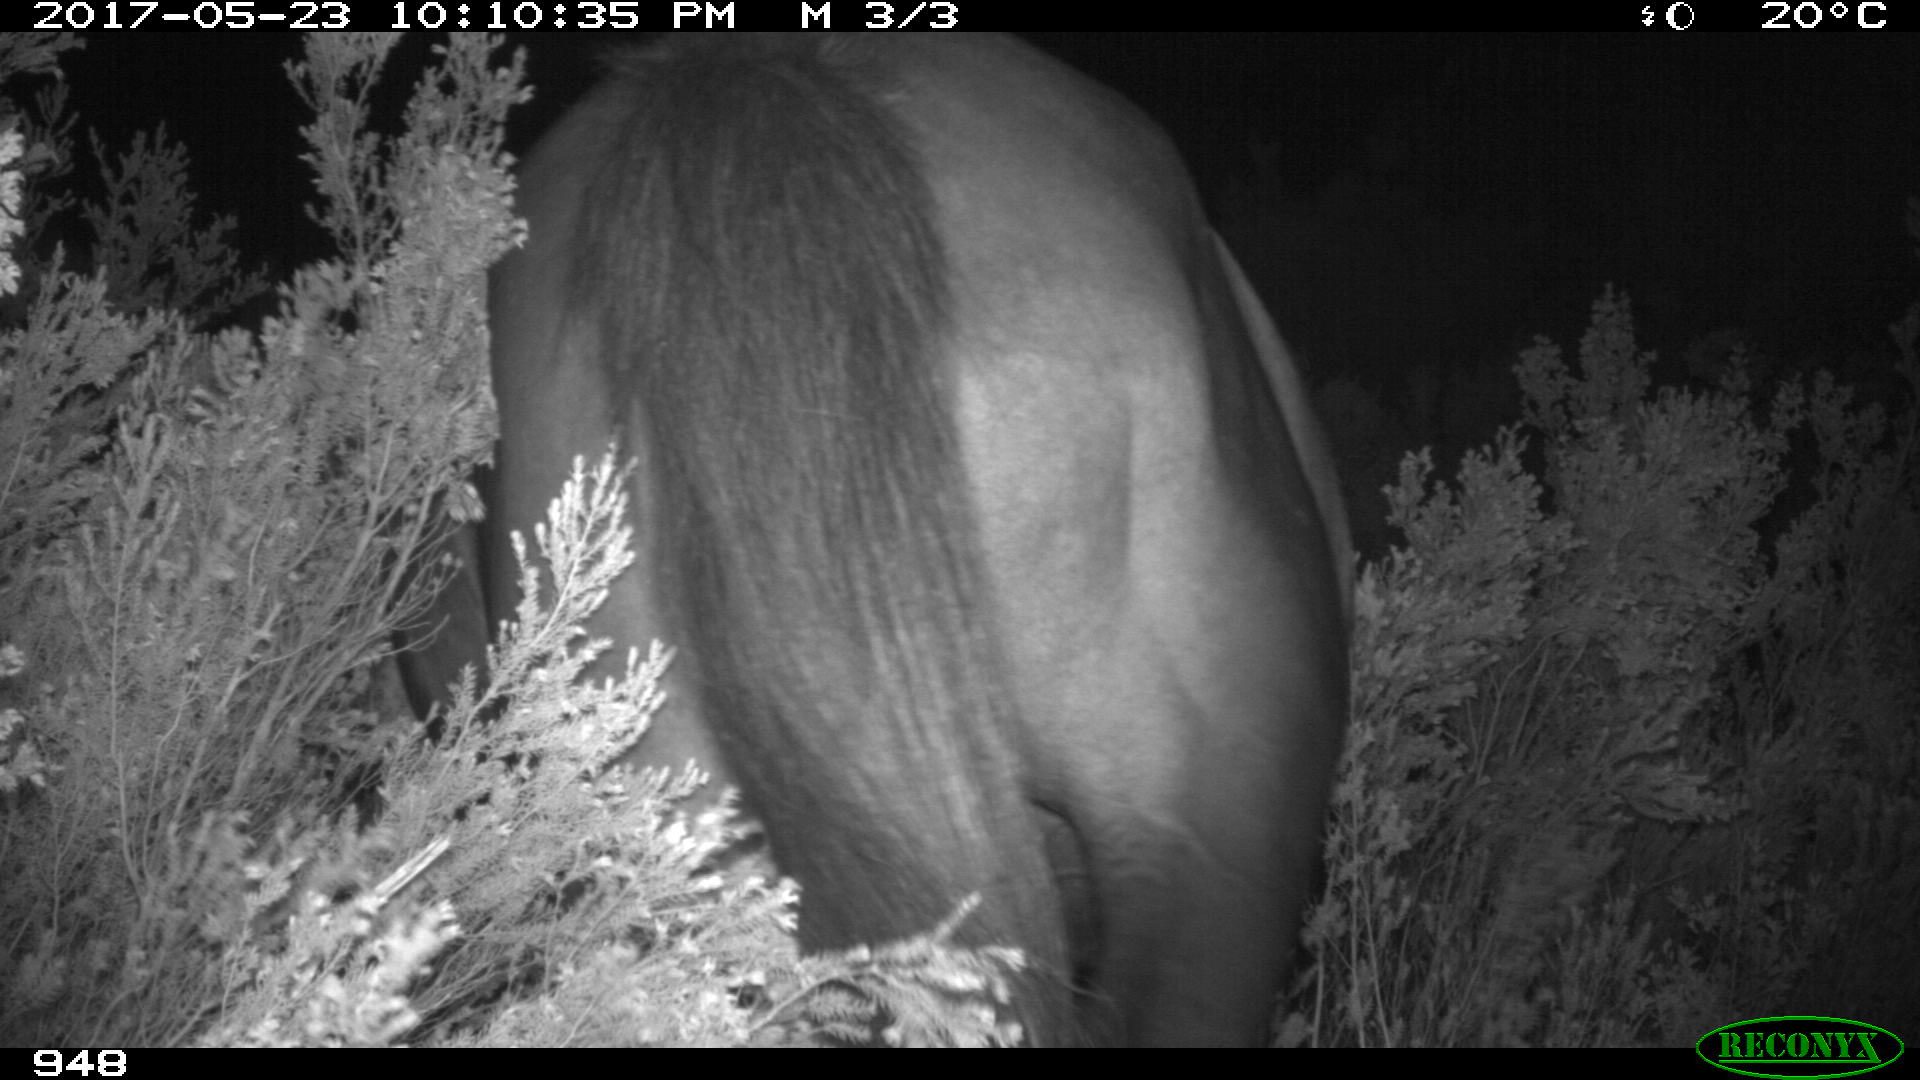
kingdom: Animalia
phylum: Chordata
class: Mammalia
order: Perissodactyla
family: Equidae
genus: Equus
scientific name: Equus caballus
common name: Horse
